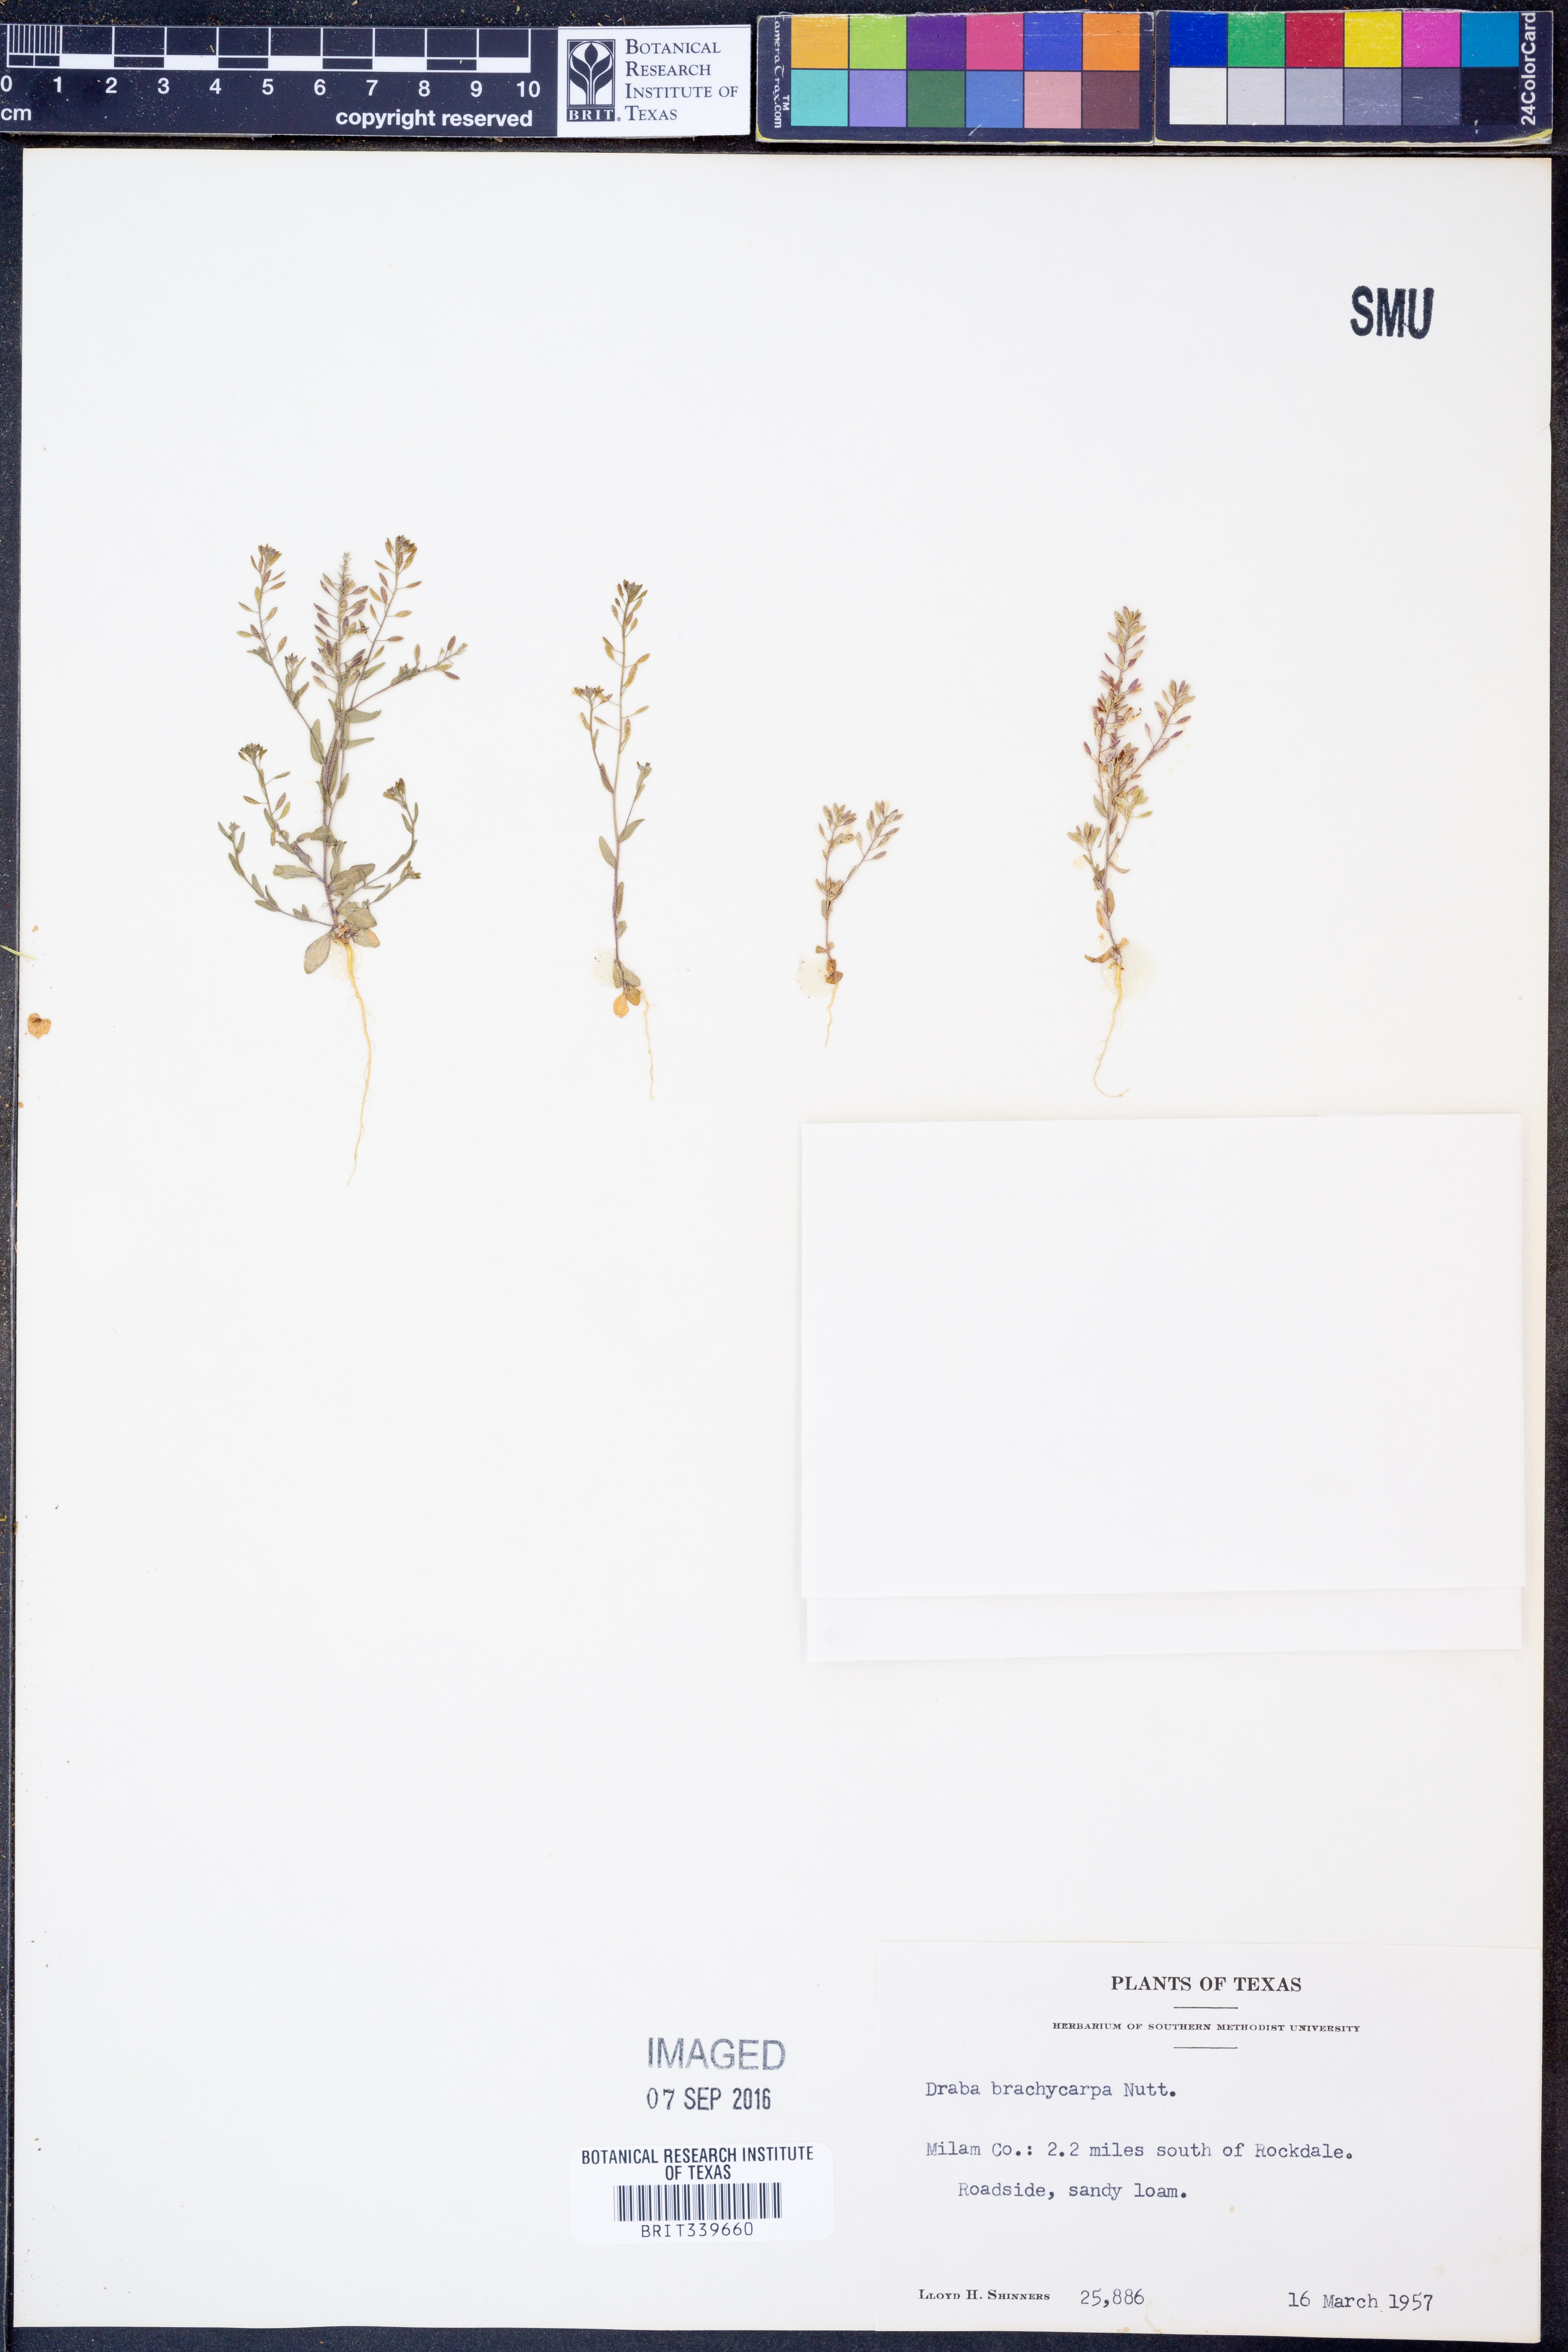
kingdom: Plantae
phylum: Tracheophyta
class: Magnoliopsida
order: Brassicales
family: Brassicaceae
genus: Abdra
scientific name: Abdra brachycarpa
